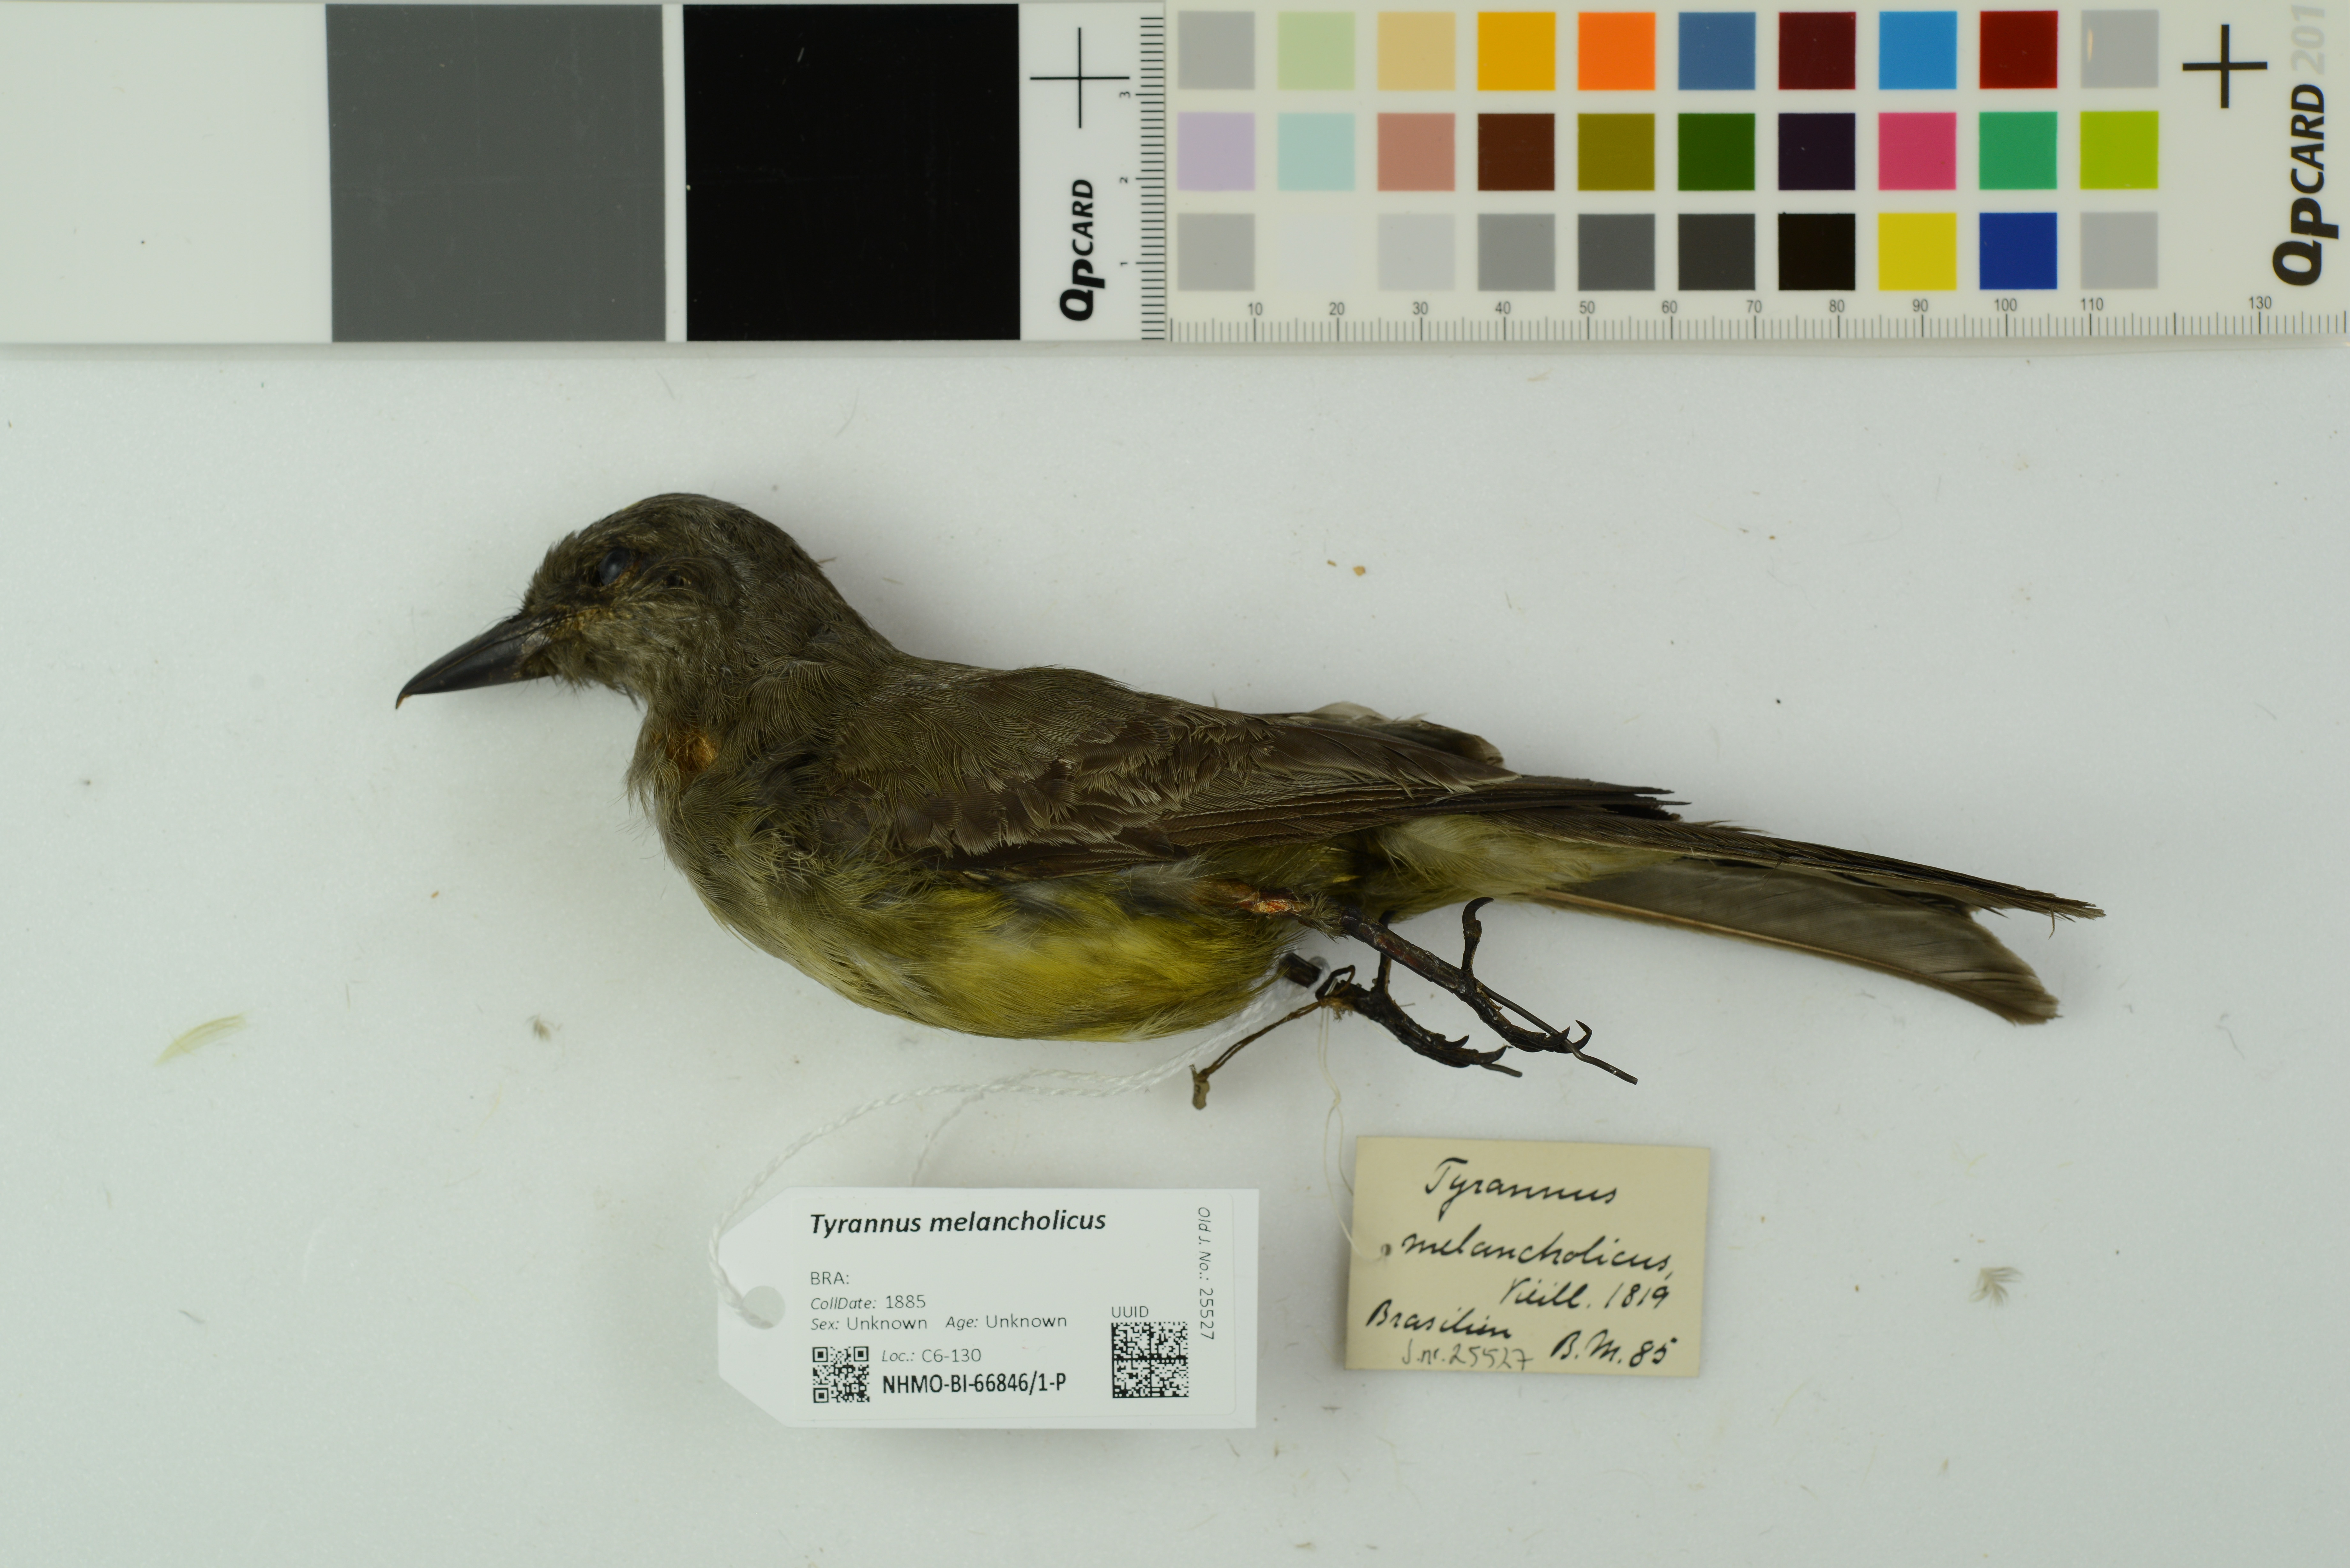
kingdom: Animalia
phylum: Chordata
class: Aves
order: Passeriformes
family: Tyrannidae
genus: Tyrannus
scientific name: Tyrannus melancholicus
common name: Tropical kingbird
